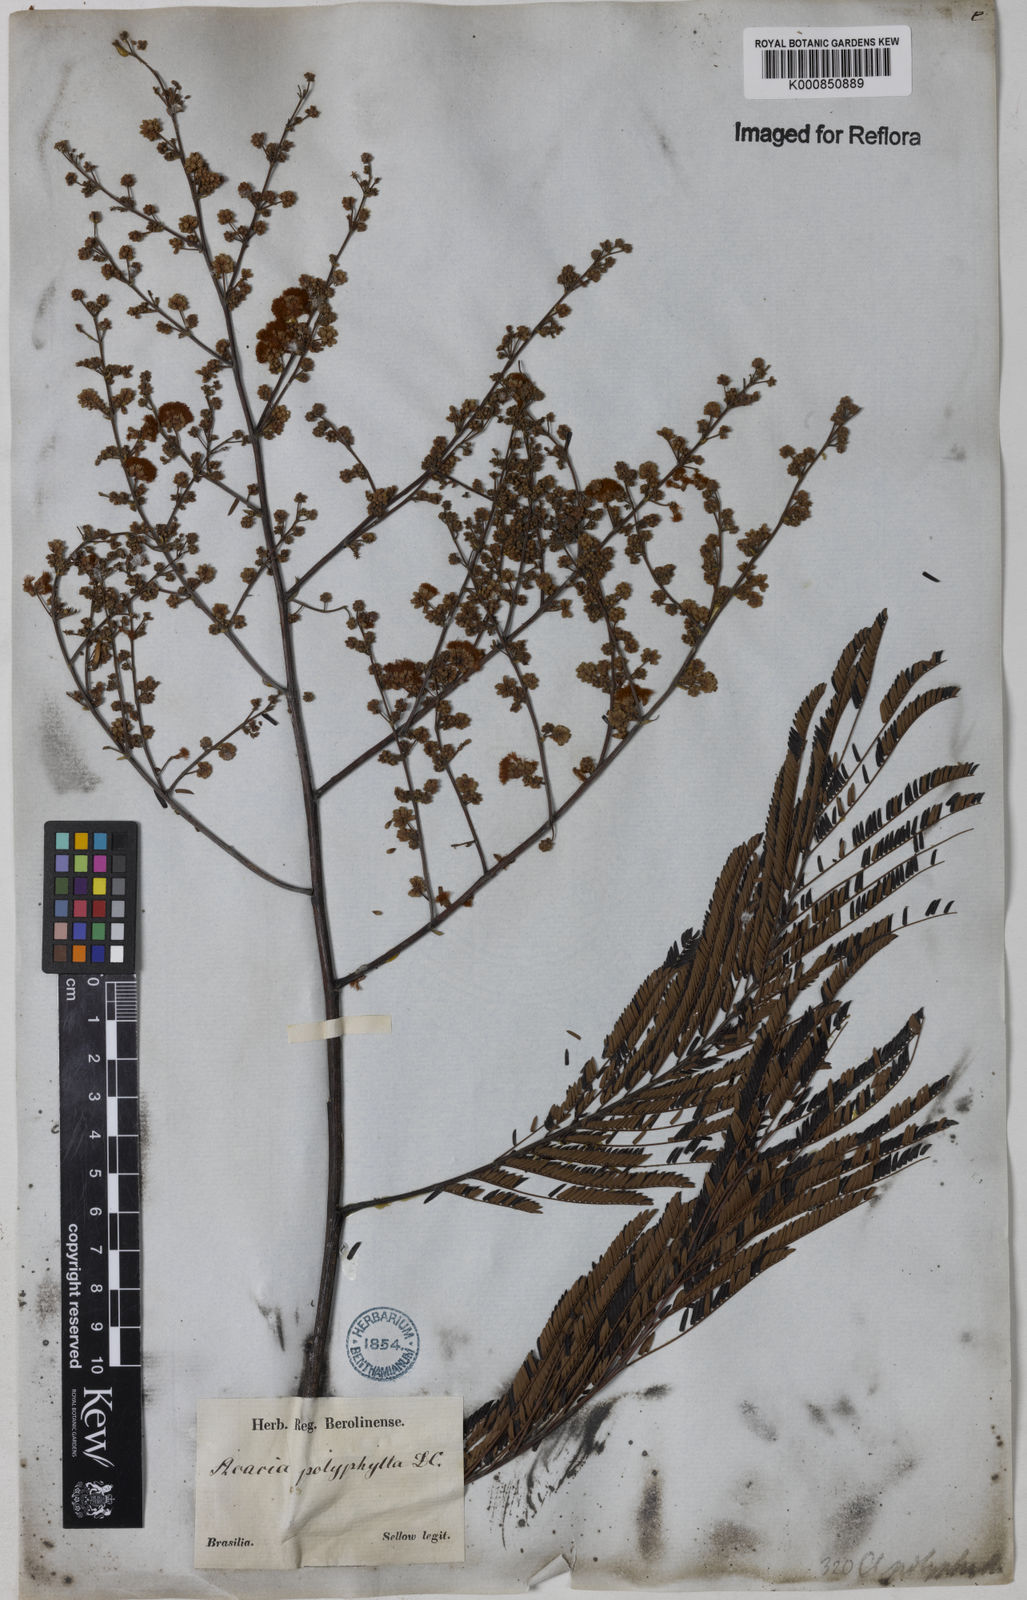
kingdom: Plantae
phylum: Tracheophyta
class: Magnoliopsida
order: Fabales
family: Fabaceae
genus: Senegalia
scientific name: Senegalia polyphylla
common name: White-tamarind
